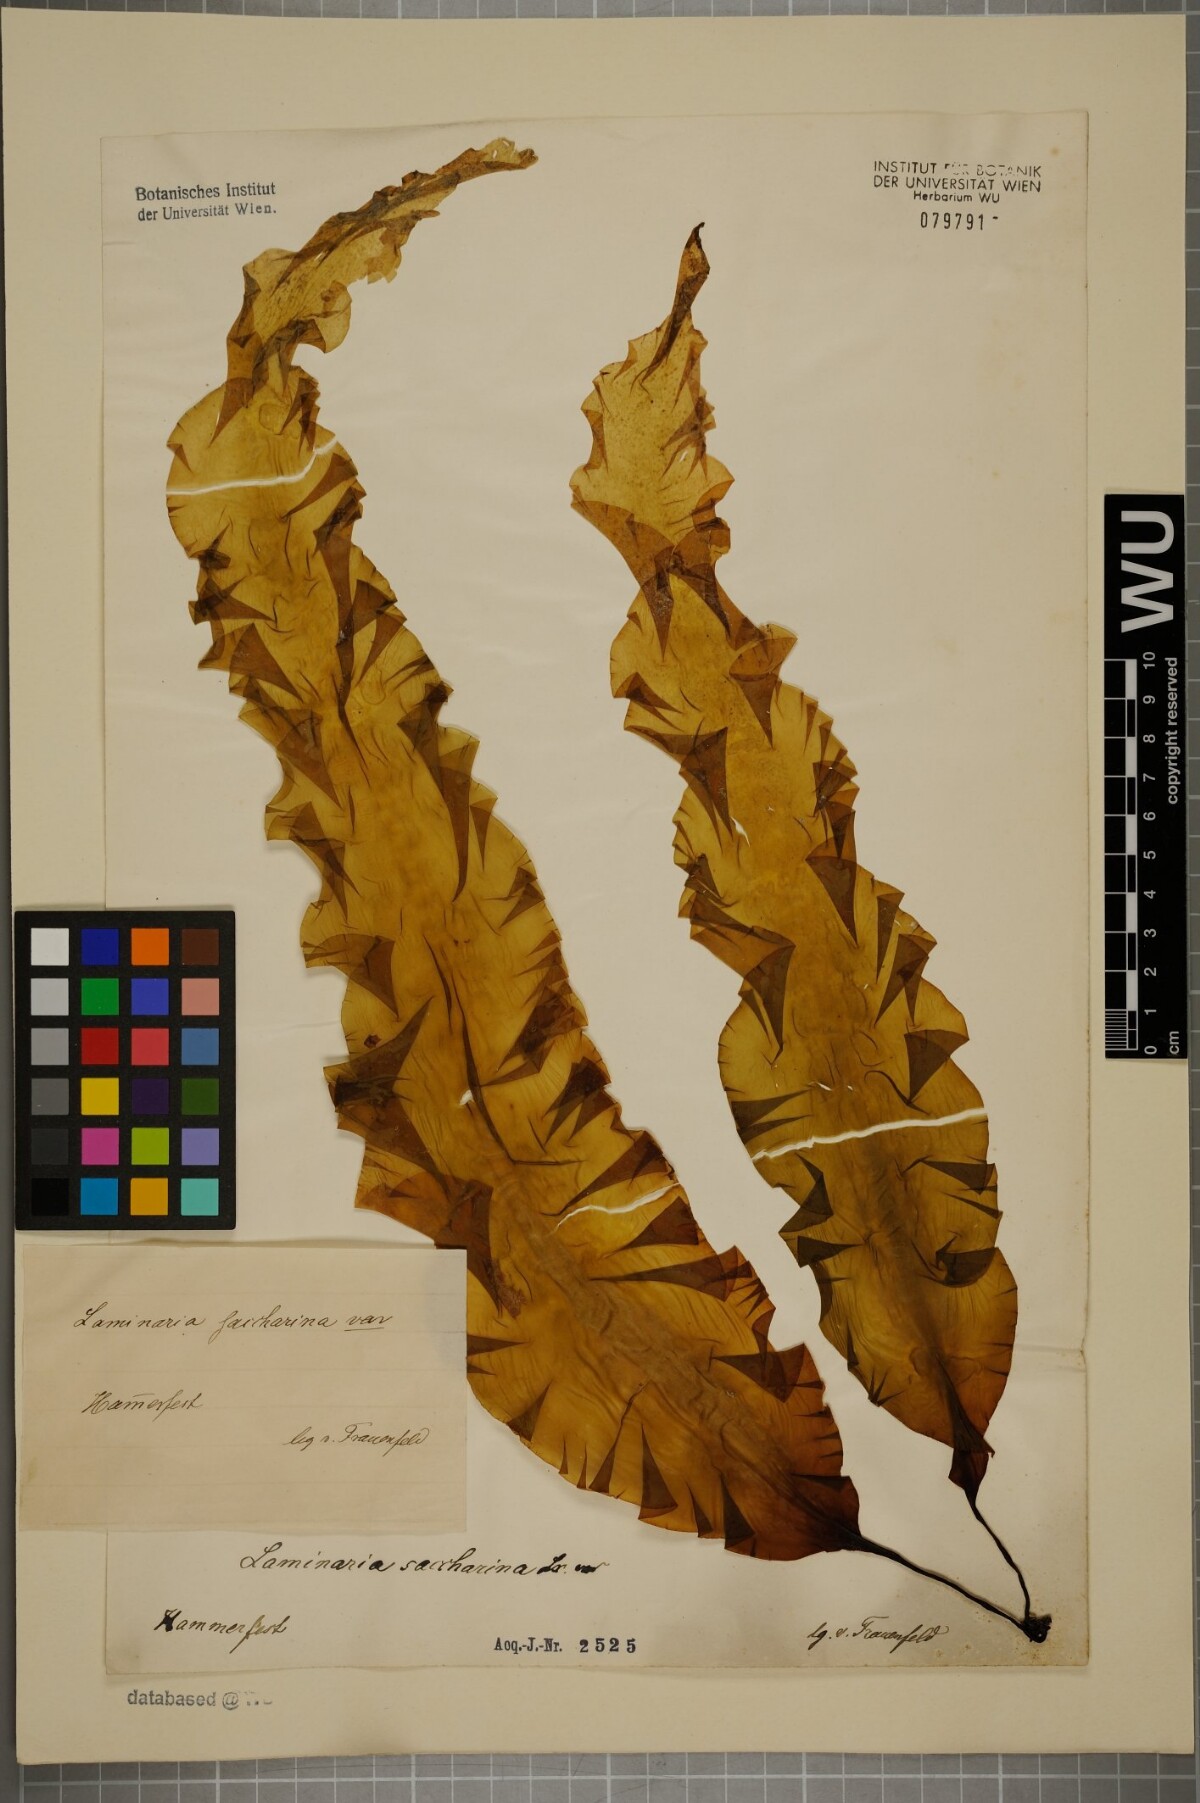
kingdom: Chromista
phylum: Ochrophyta
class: Phaeophyceae
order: Laminariales
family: Laminariaceae
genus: Saccharina
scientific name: Saccharina latissima
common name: Poor man's weather glass
